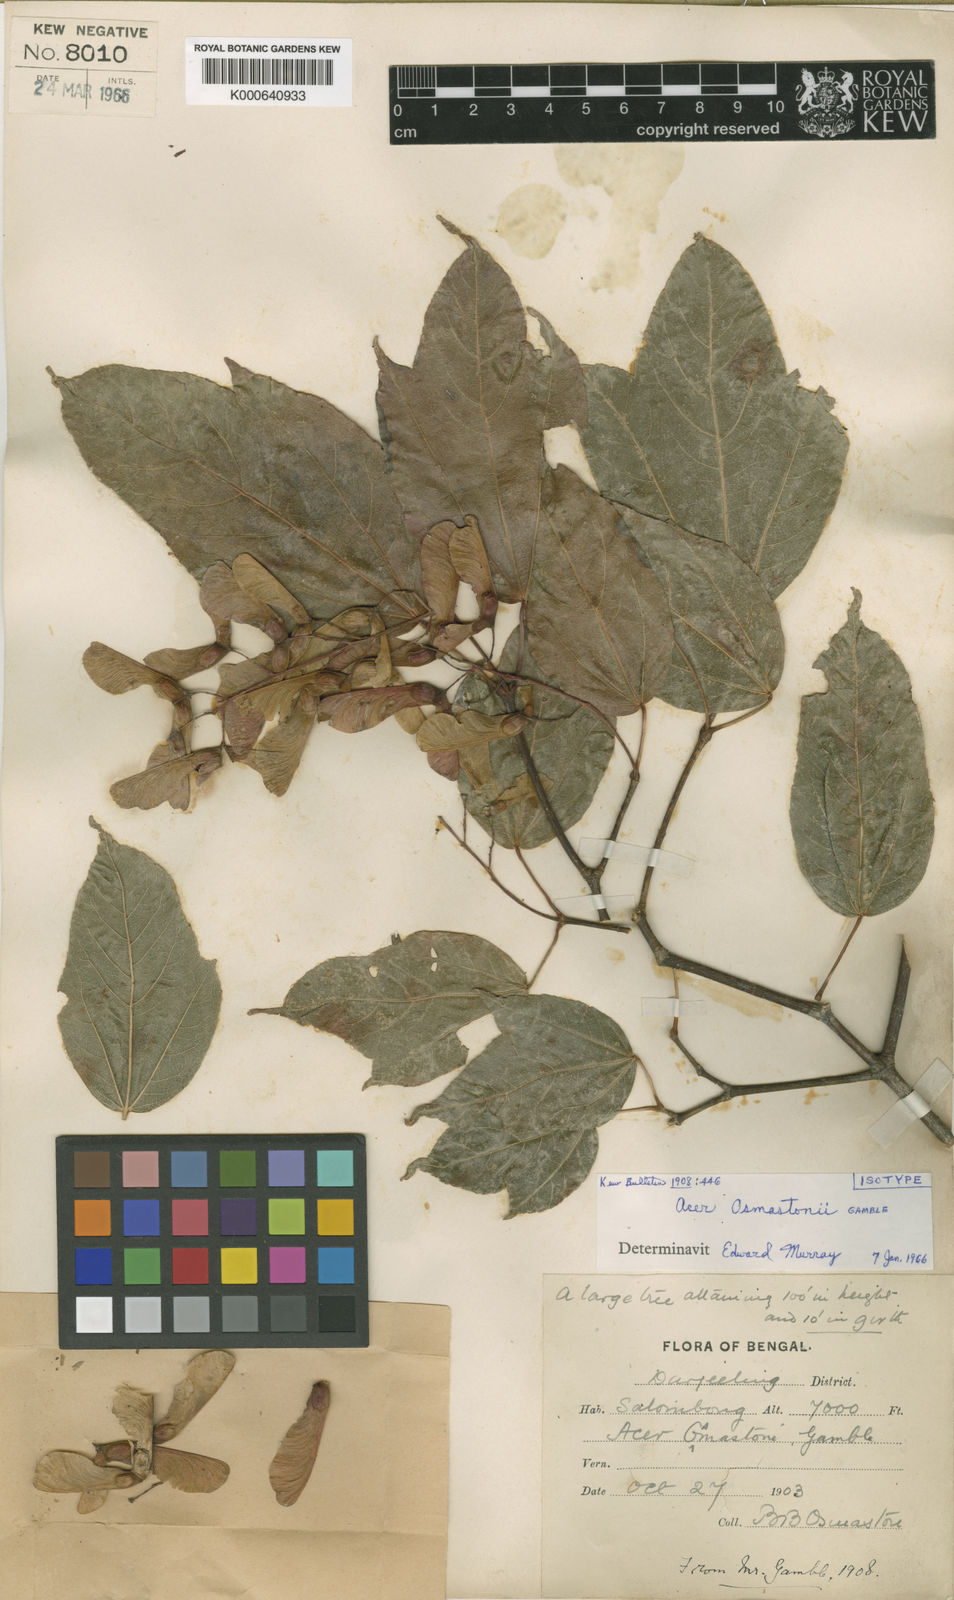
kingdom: Plantae
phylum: Tracheophyta
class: Magnoliopsida
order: Sapindales
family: Sapindaceae
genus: Acer
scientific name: Acer calcaratum
